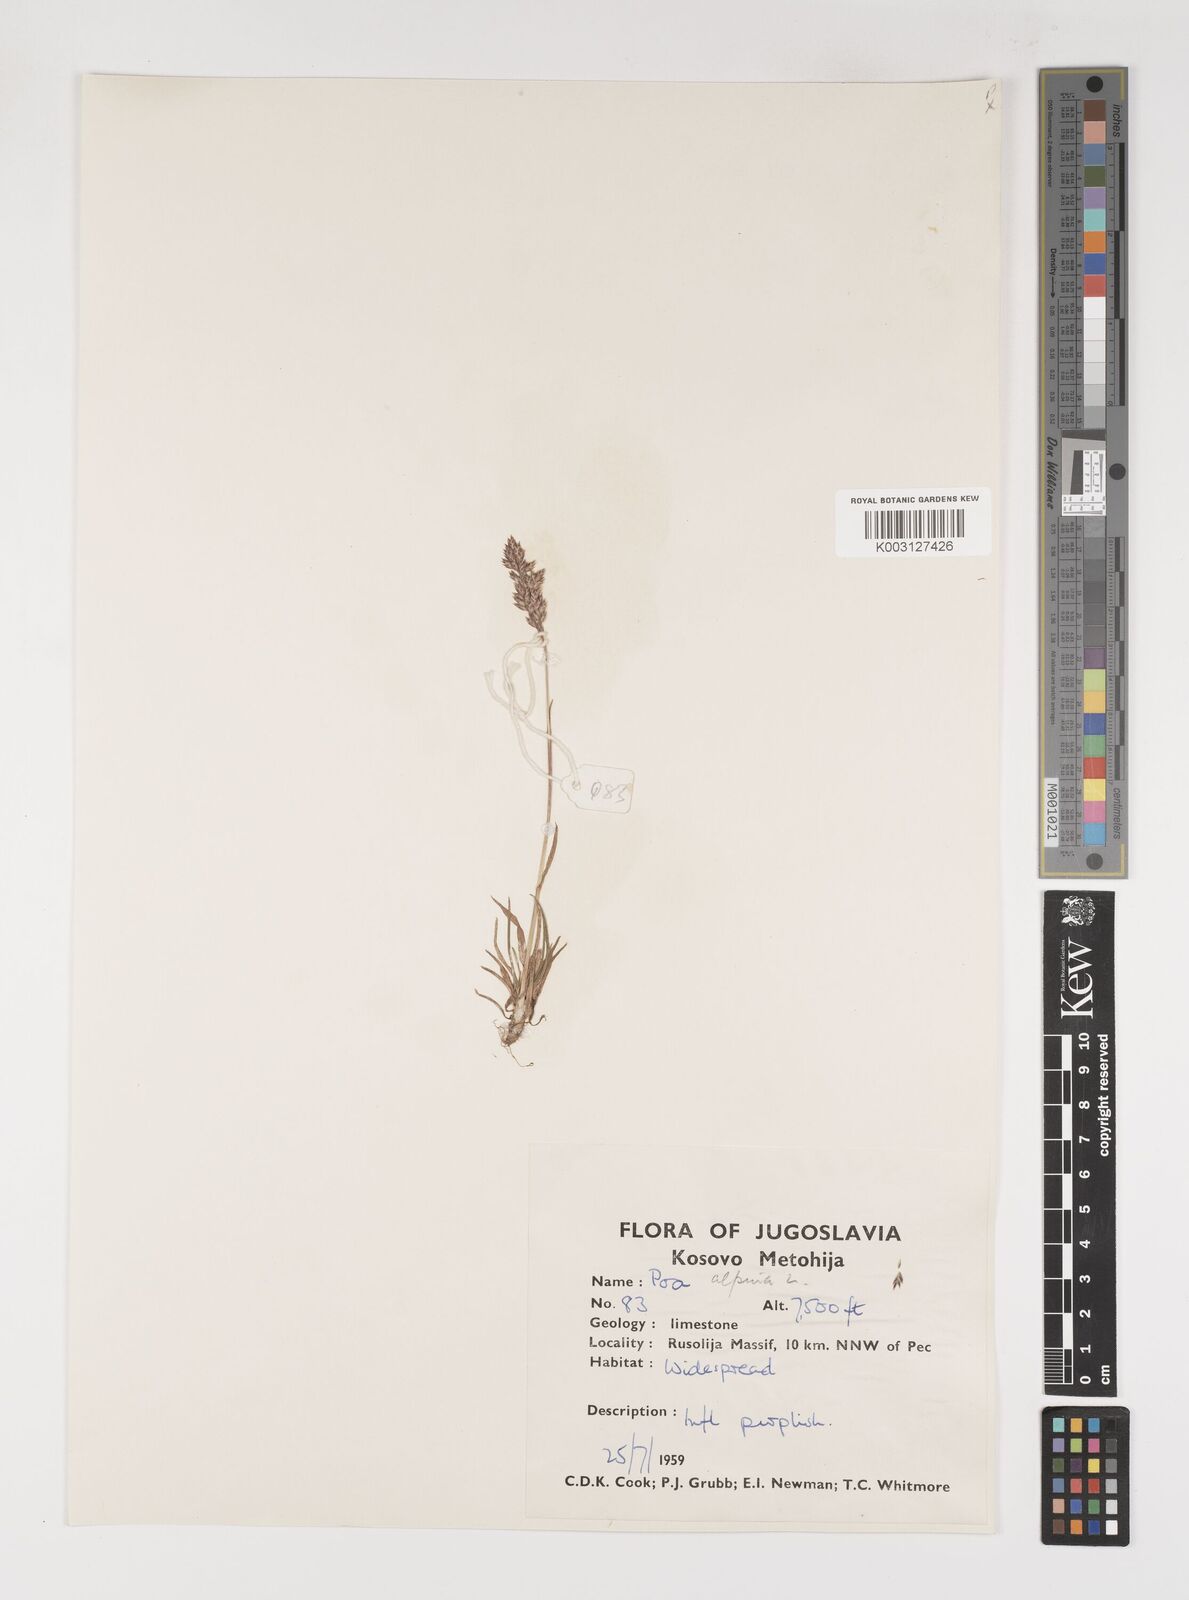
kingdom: Plantae
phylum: Tracheophyta
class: Liliopsida
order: Poales
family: Poaceae
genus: Poa
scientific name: Poa alpina
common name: Alpine bluegrass
